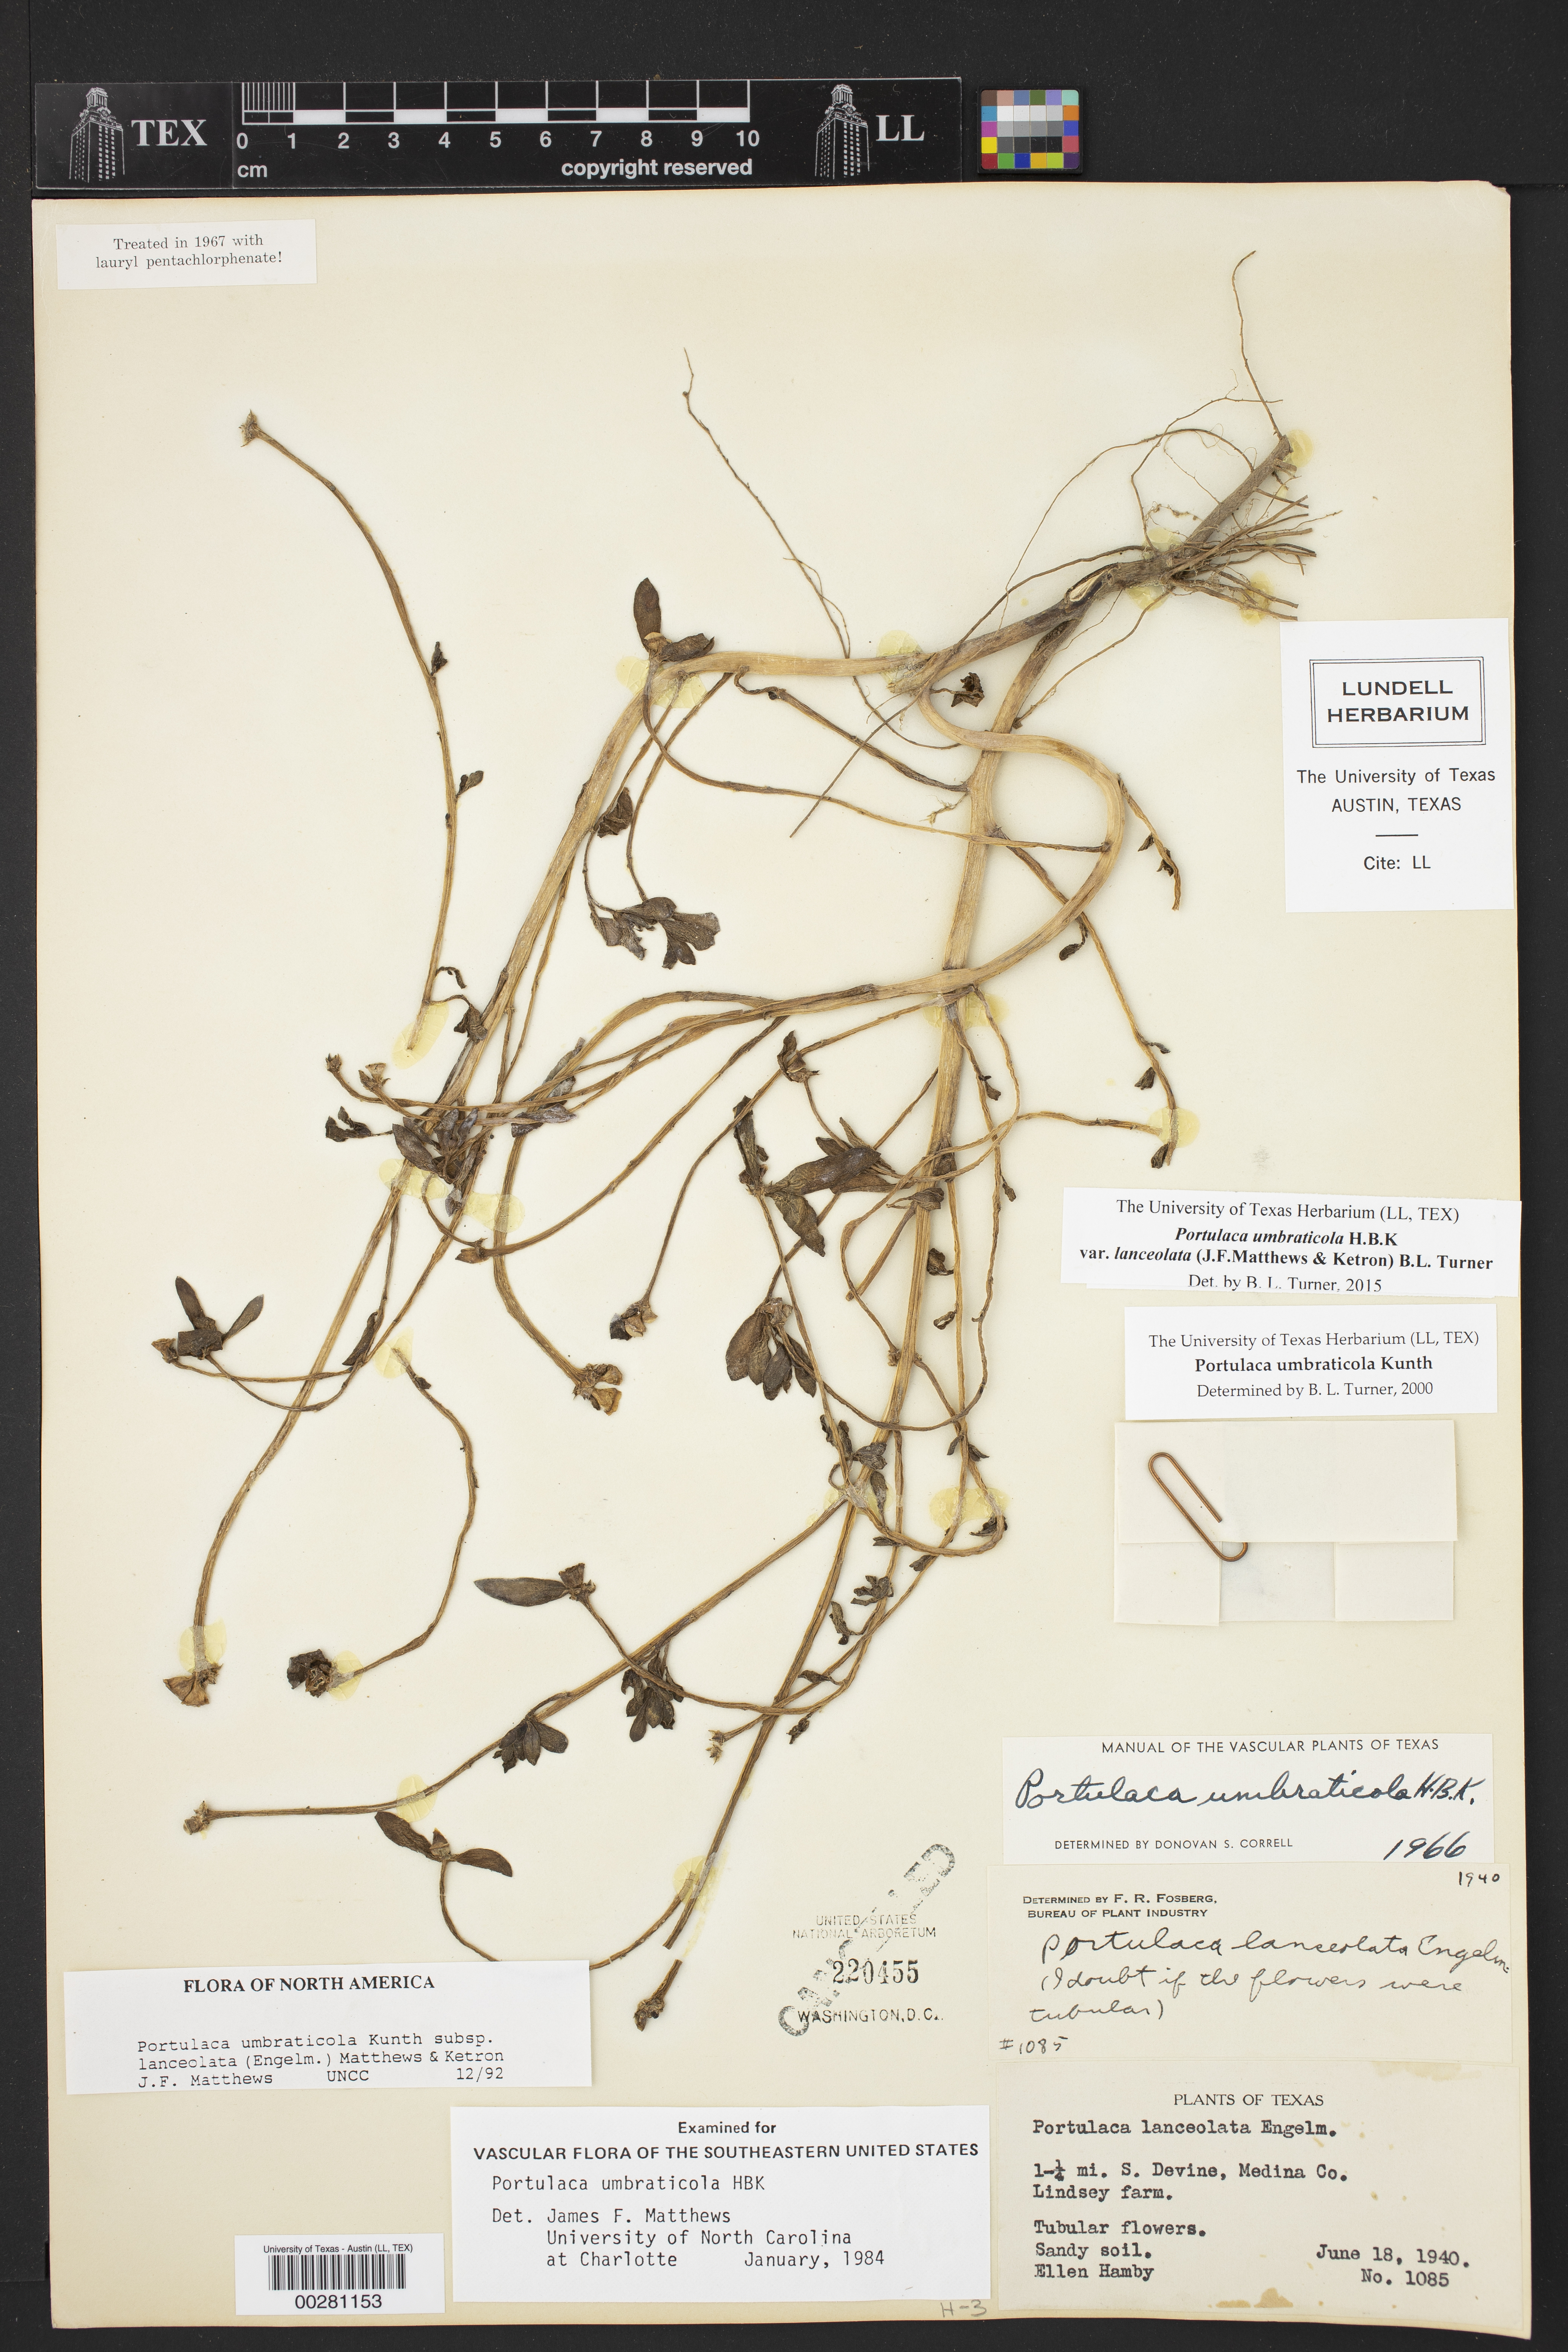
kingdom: Plantae
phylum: Tracheophyta
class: Magnoliopsida
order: Caryophyllales
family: Portulacaceae
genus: Portulaca
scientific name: Portulaca umbraticola
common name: Wingpod purslane
